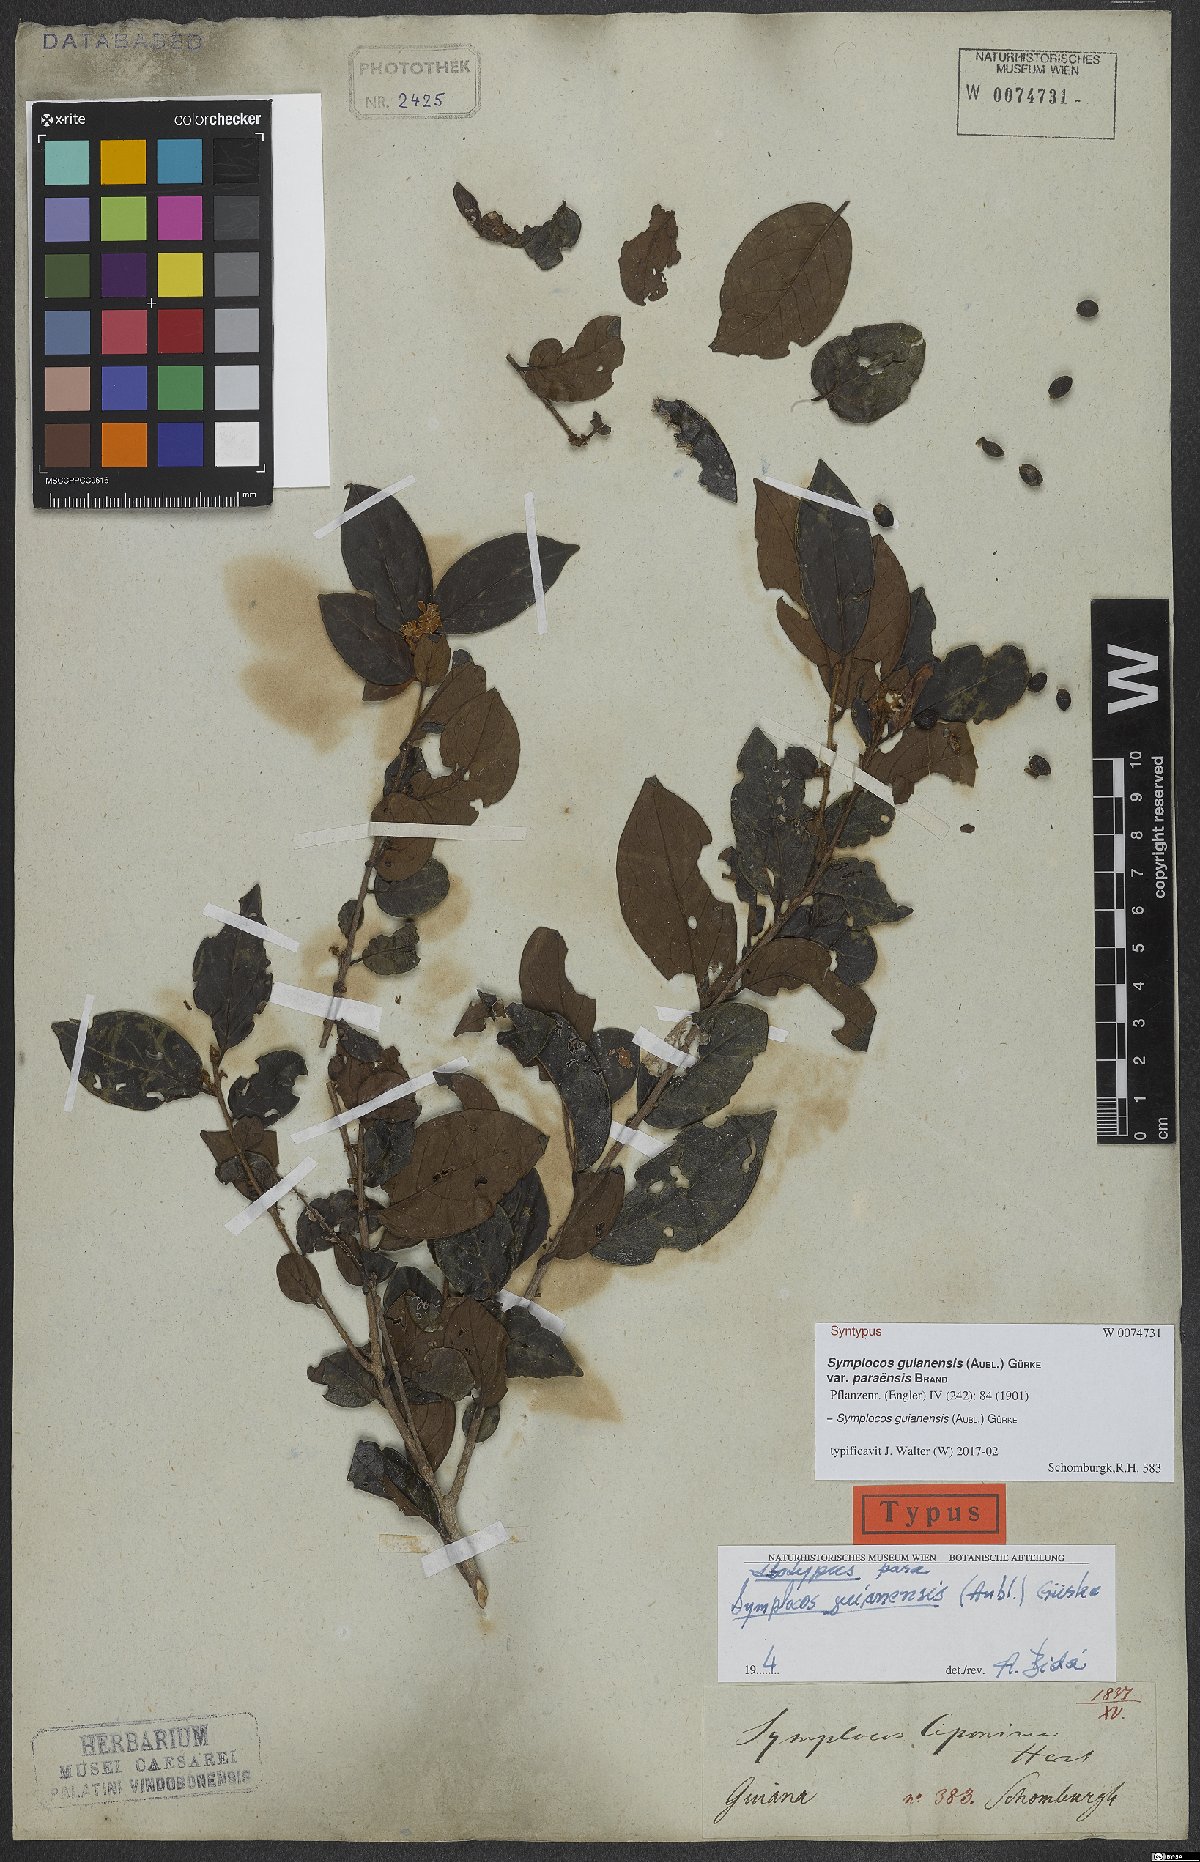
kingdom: Plantae
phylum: Tracheophyta
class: Magnoliopsida
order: Ericales
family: Symplocaceae
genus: Symplocos
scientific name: Symplocos guianensis
